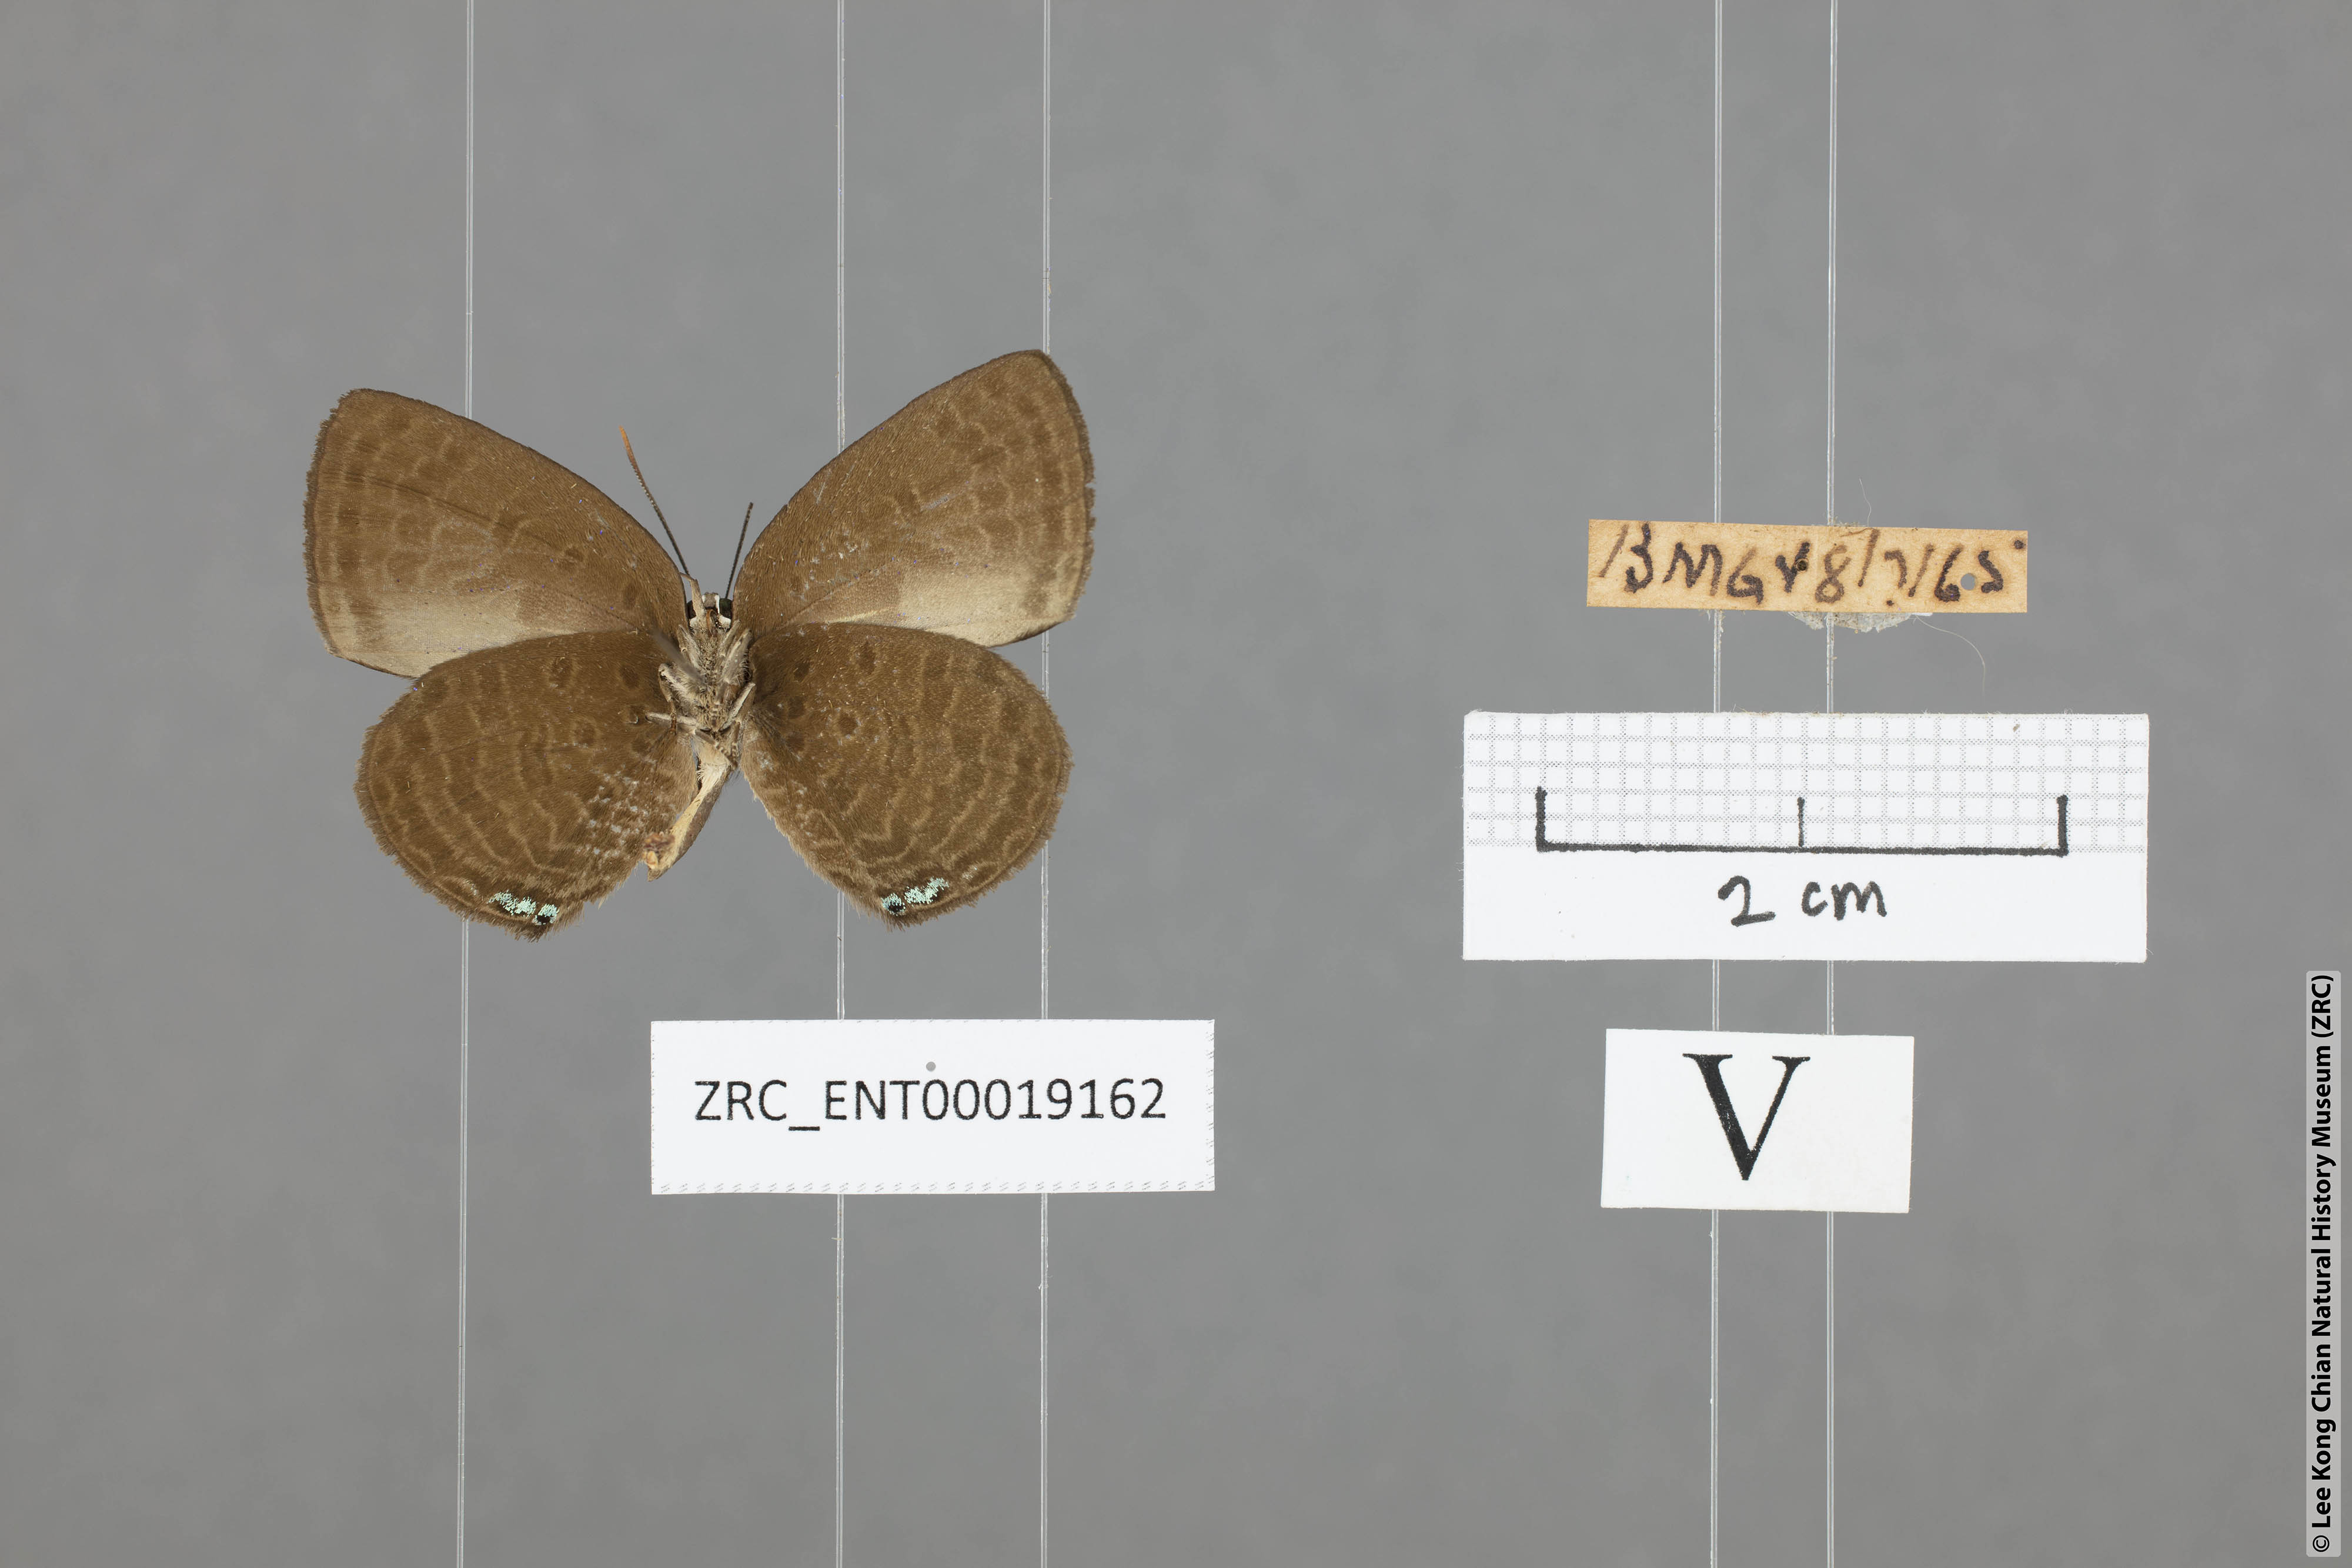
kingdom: Animalia
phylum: Arthropoda
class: Insecta
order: Lepidoptera
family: Lycaenidae
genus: Arhopala
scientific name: Arhopala antimuta
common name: Small tailless oakblue
